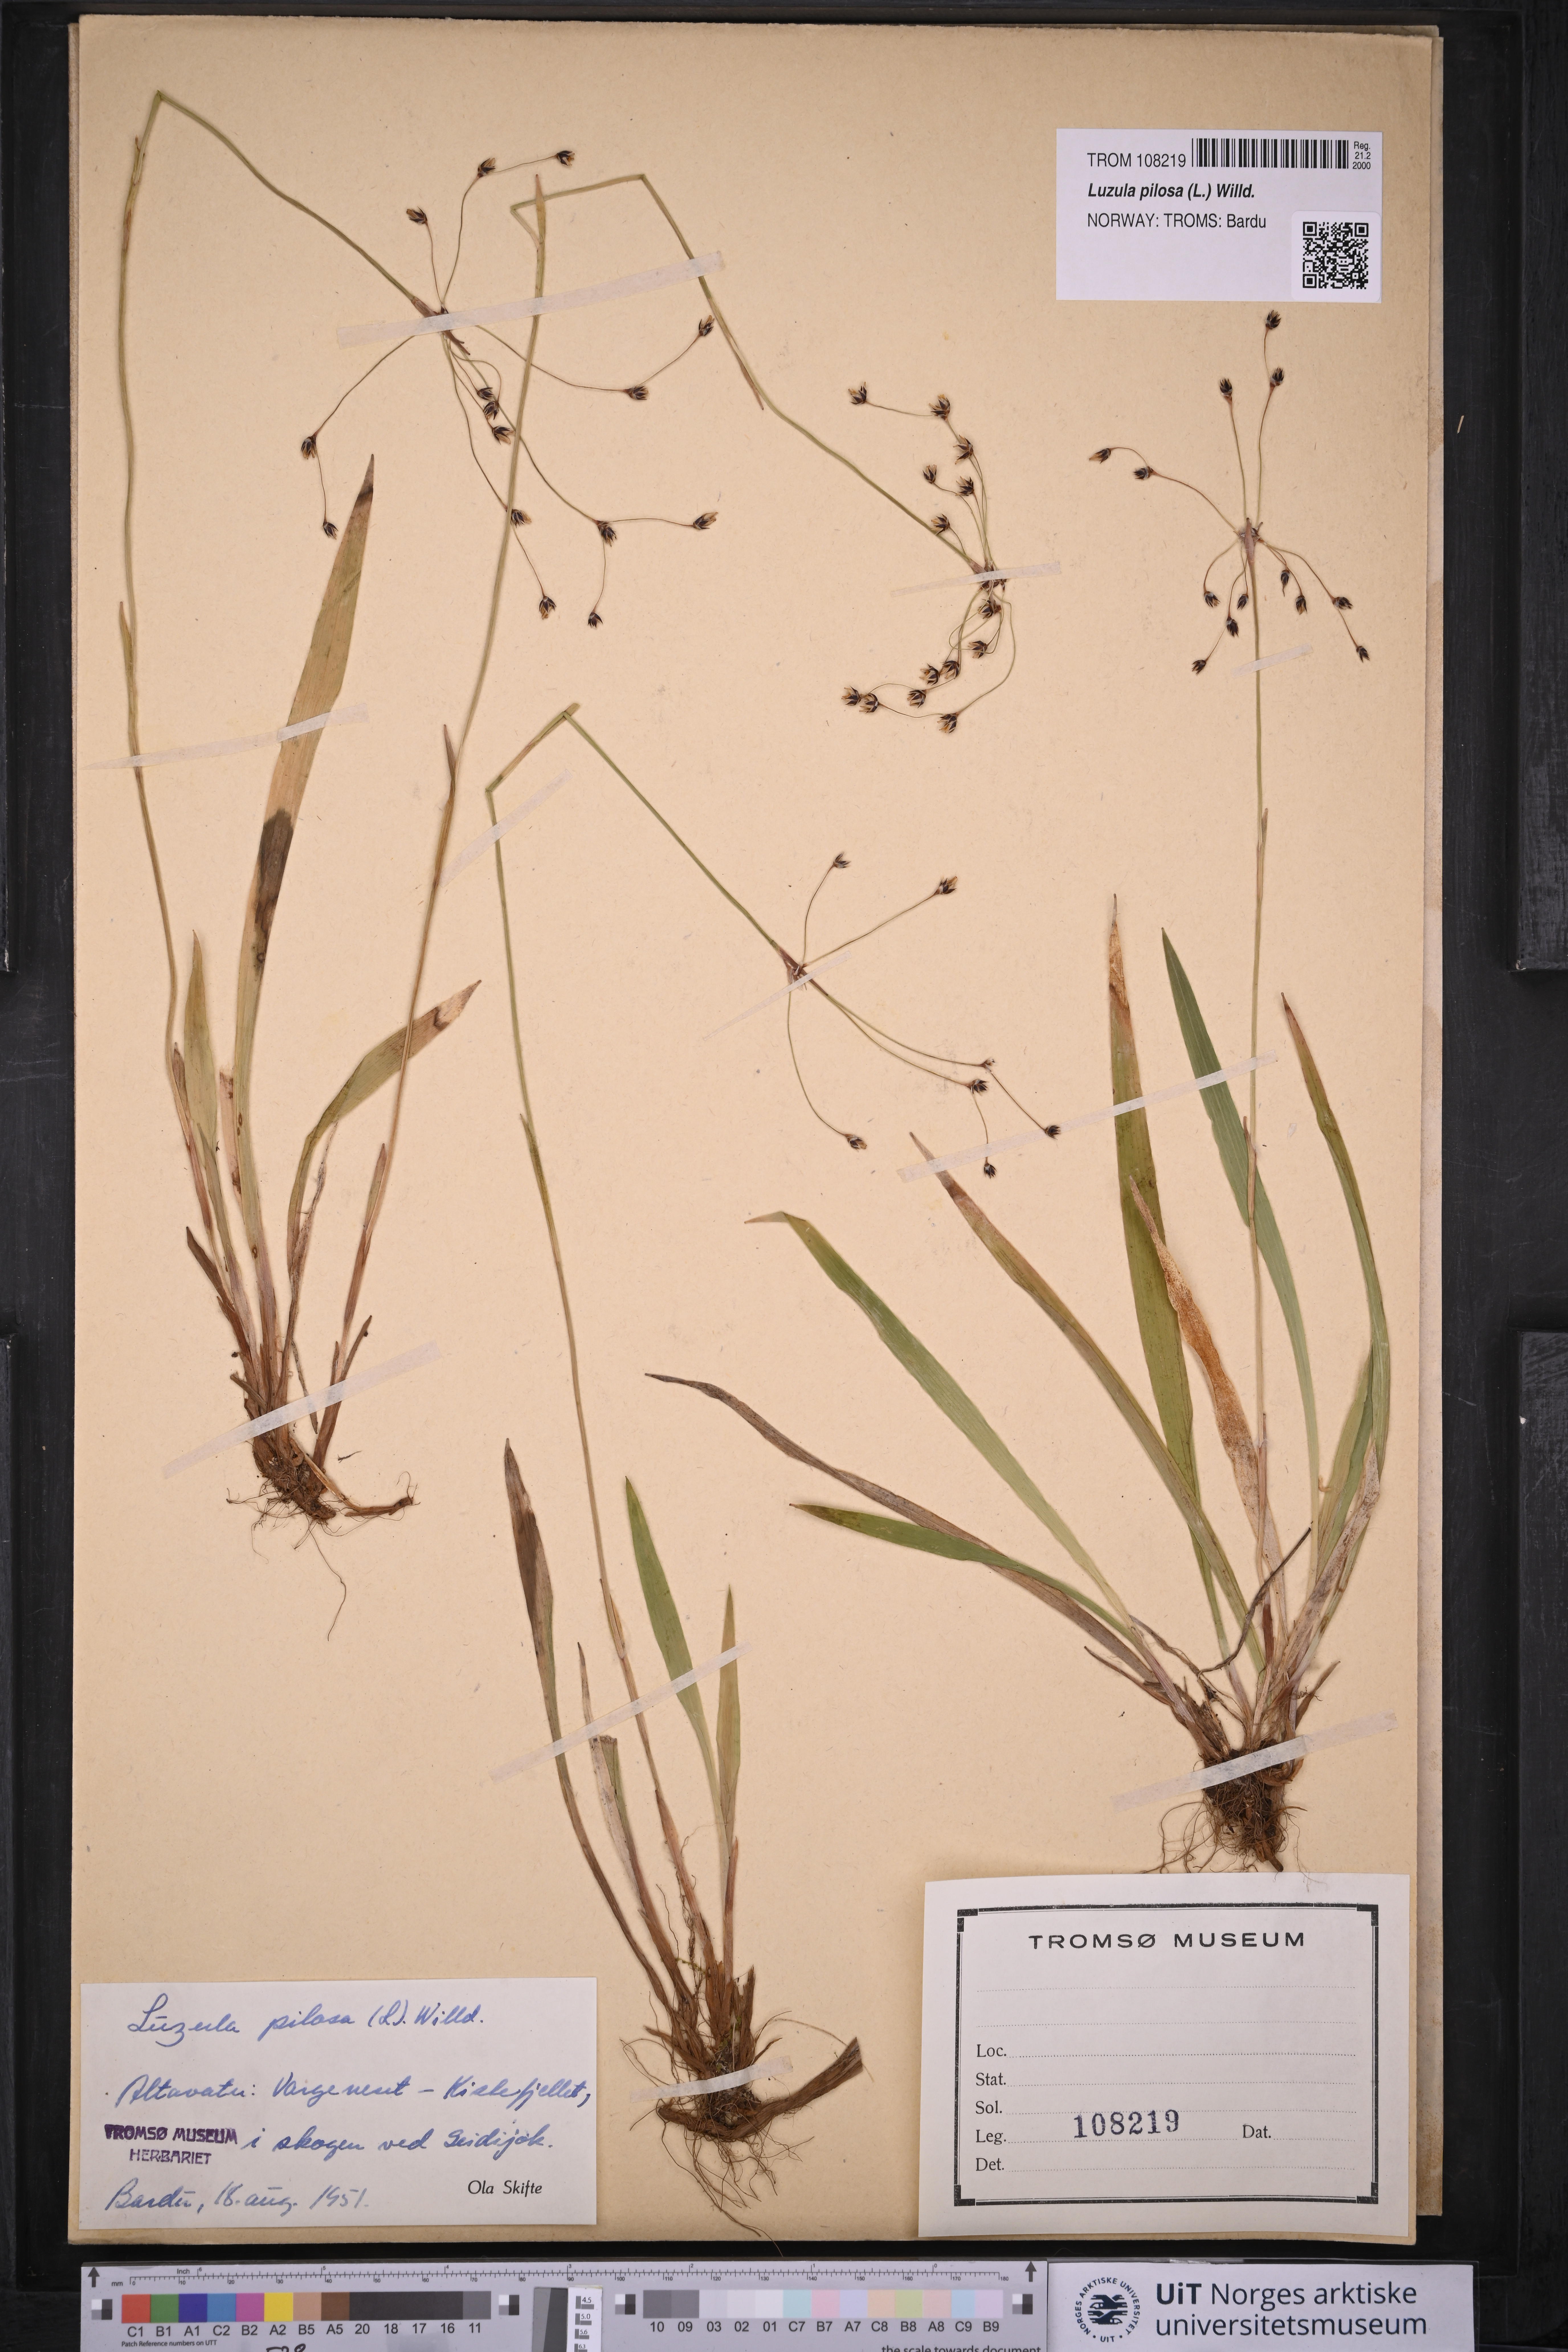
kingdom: Plantae
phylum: Tracheophyta
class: Liliopsida
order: Poales
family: Juncaceae
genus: Luzula
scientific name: Luzula pilosa
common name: Hairy wood-rush
